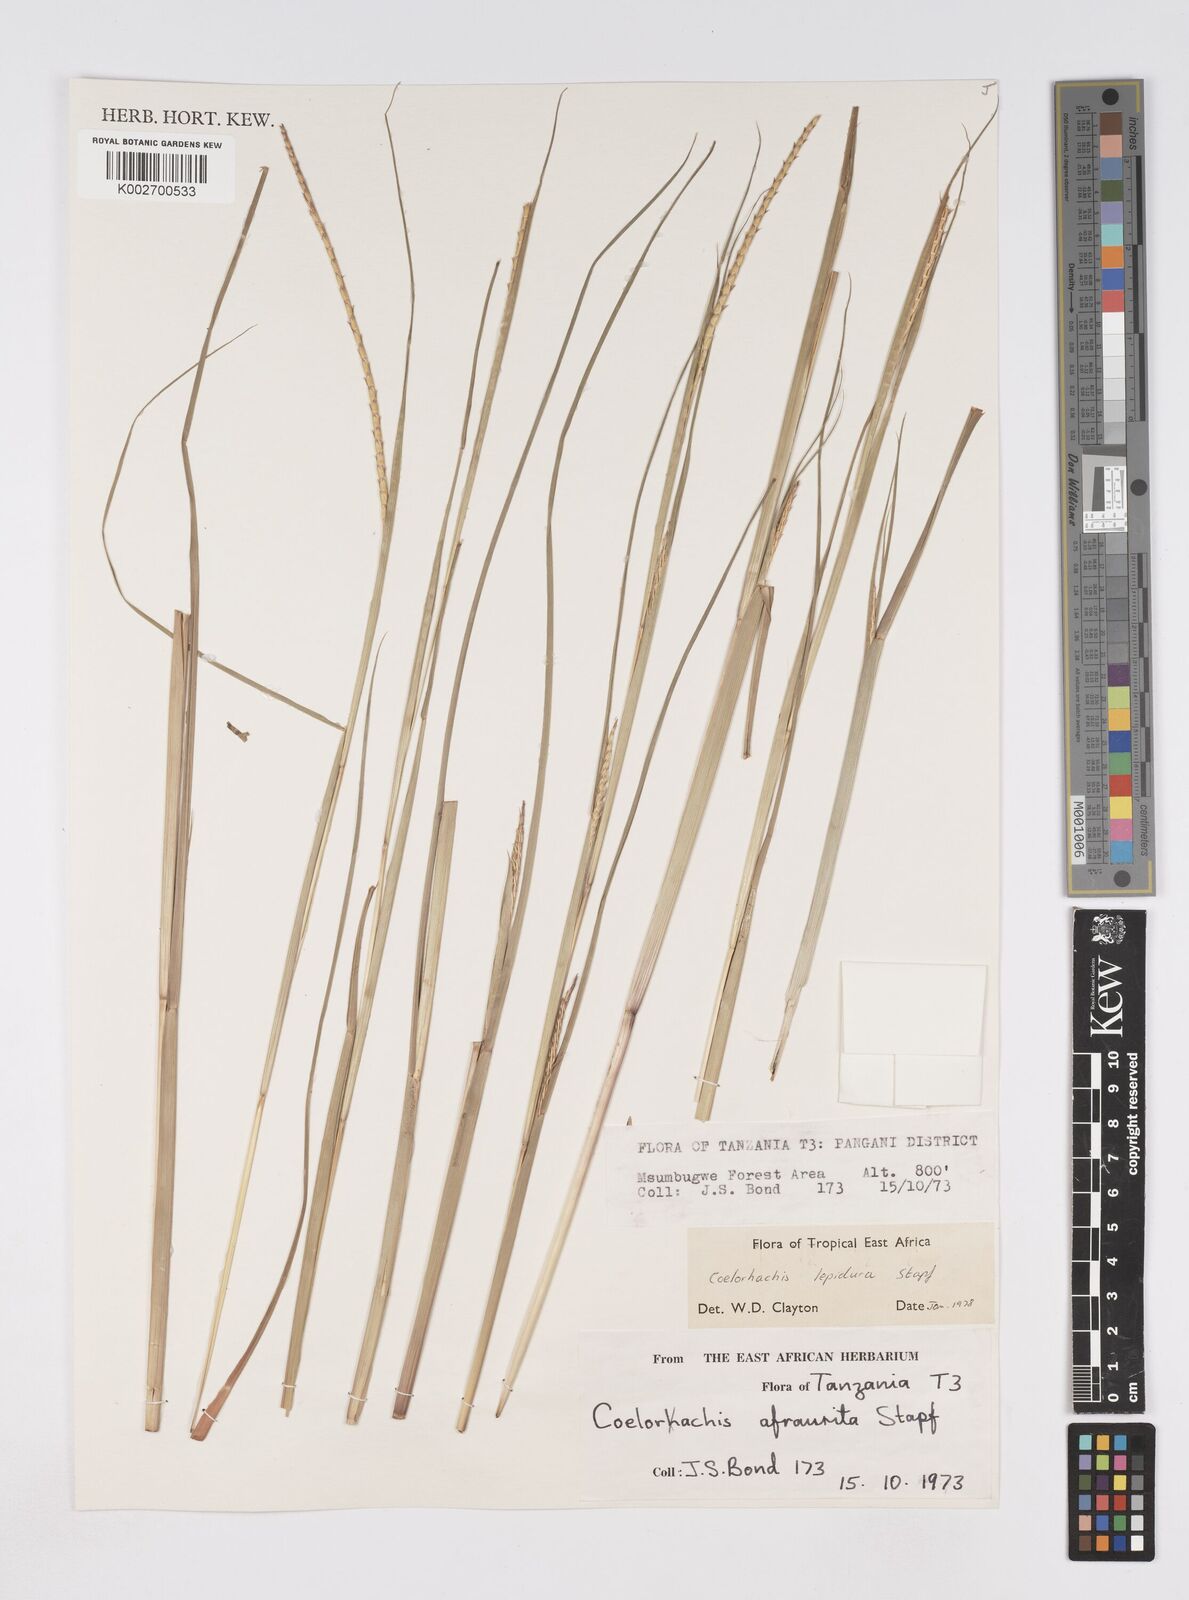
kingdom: Plantae
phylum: Tracheophyta
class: Liliopsida
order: Poales
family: Poaceae
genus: Rottboellia
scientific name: Rottboellia lepidura
